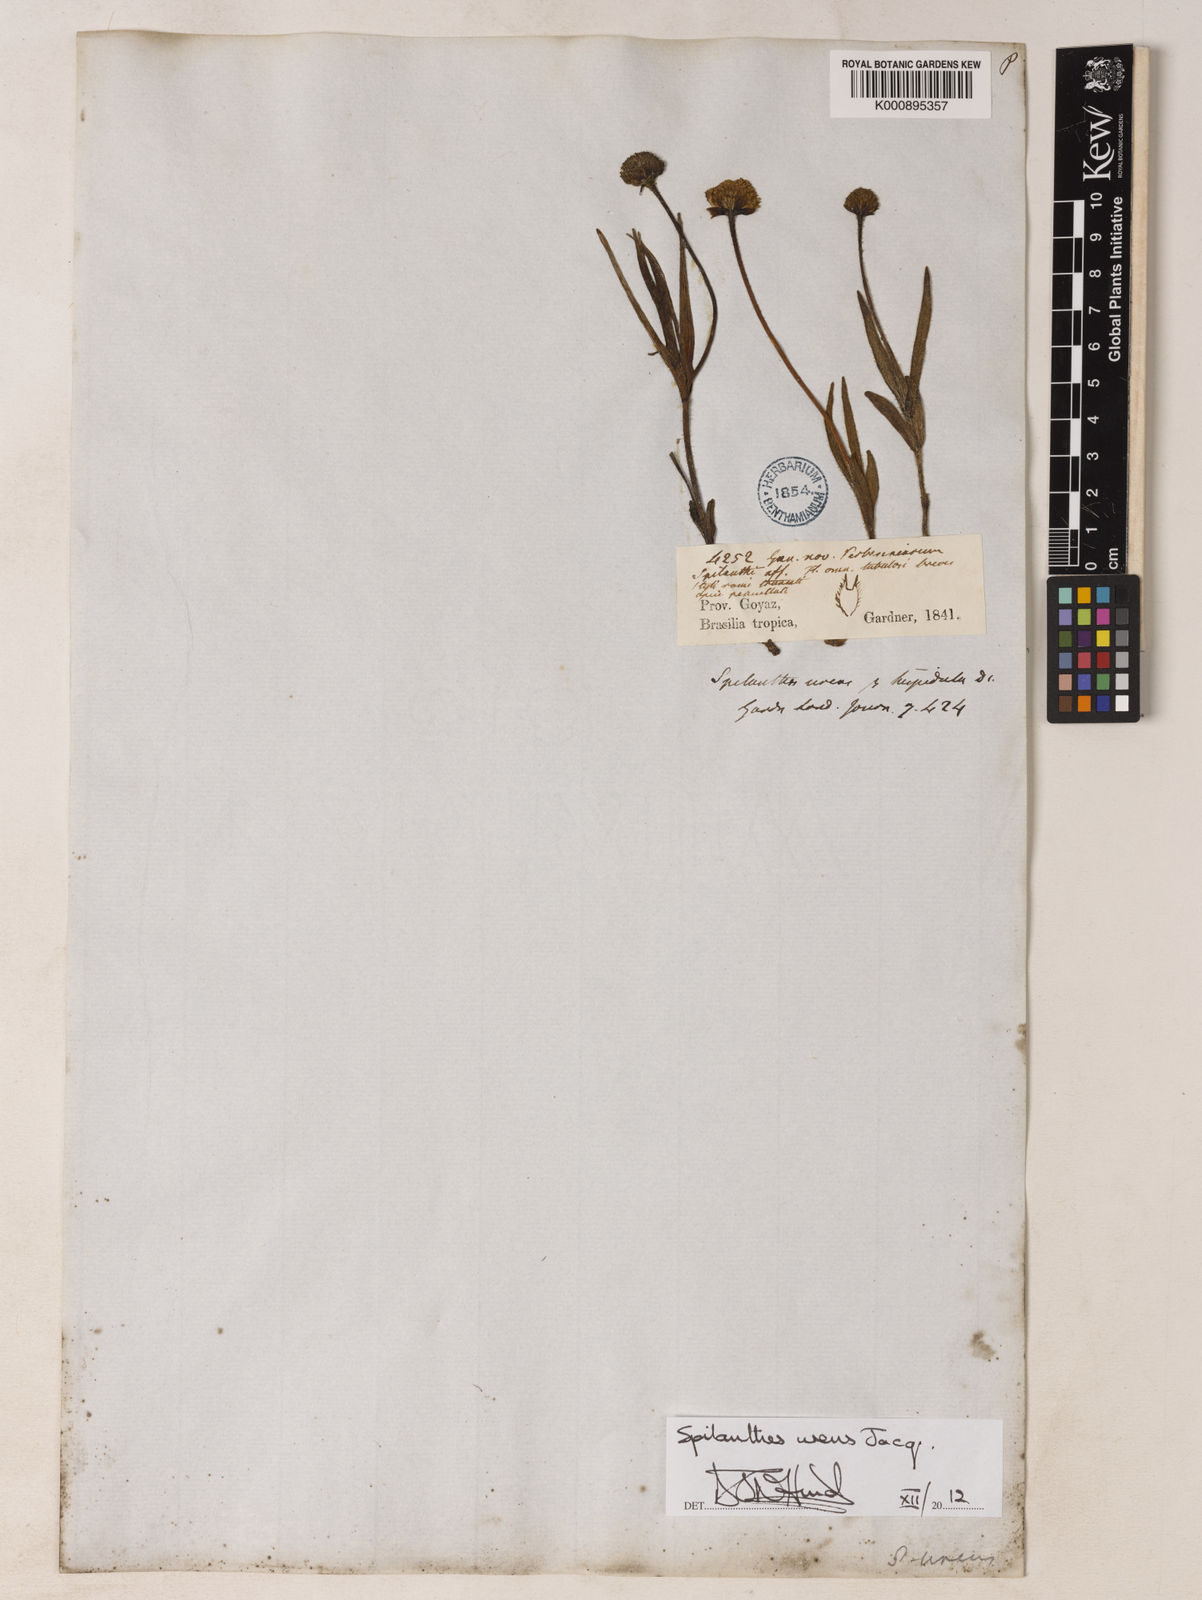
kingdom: Plantae
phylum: Tracheophyta
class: Magnoliopsida
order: Asterales
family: Asteraceae
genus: Spilanthes
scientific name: Spilanthes
